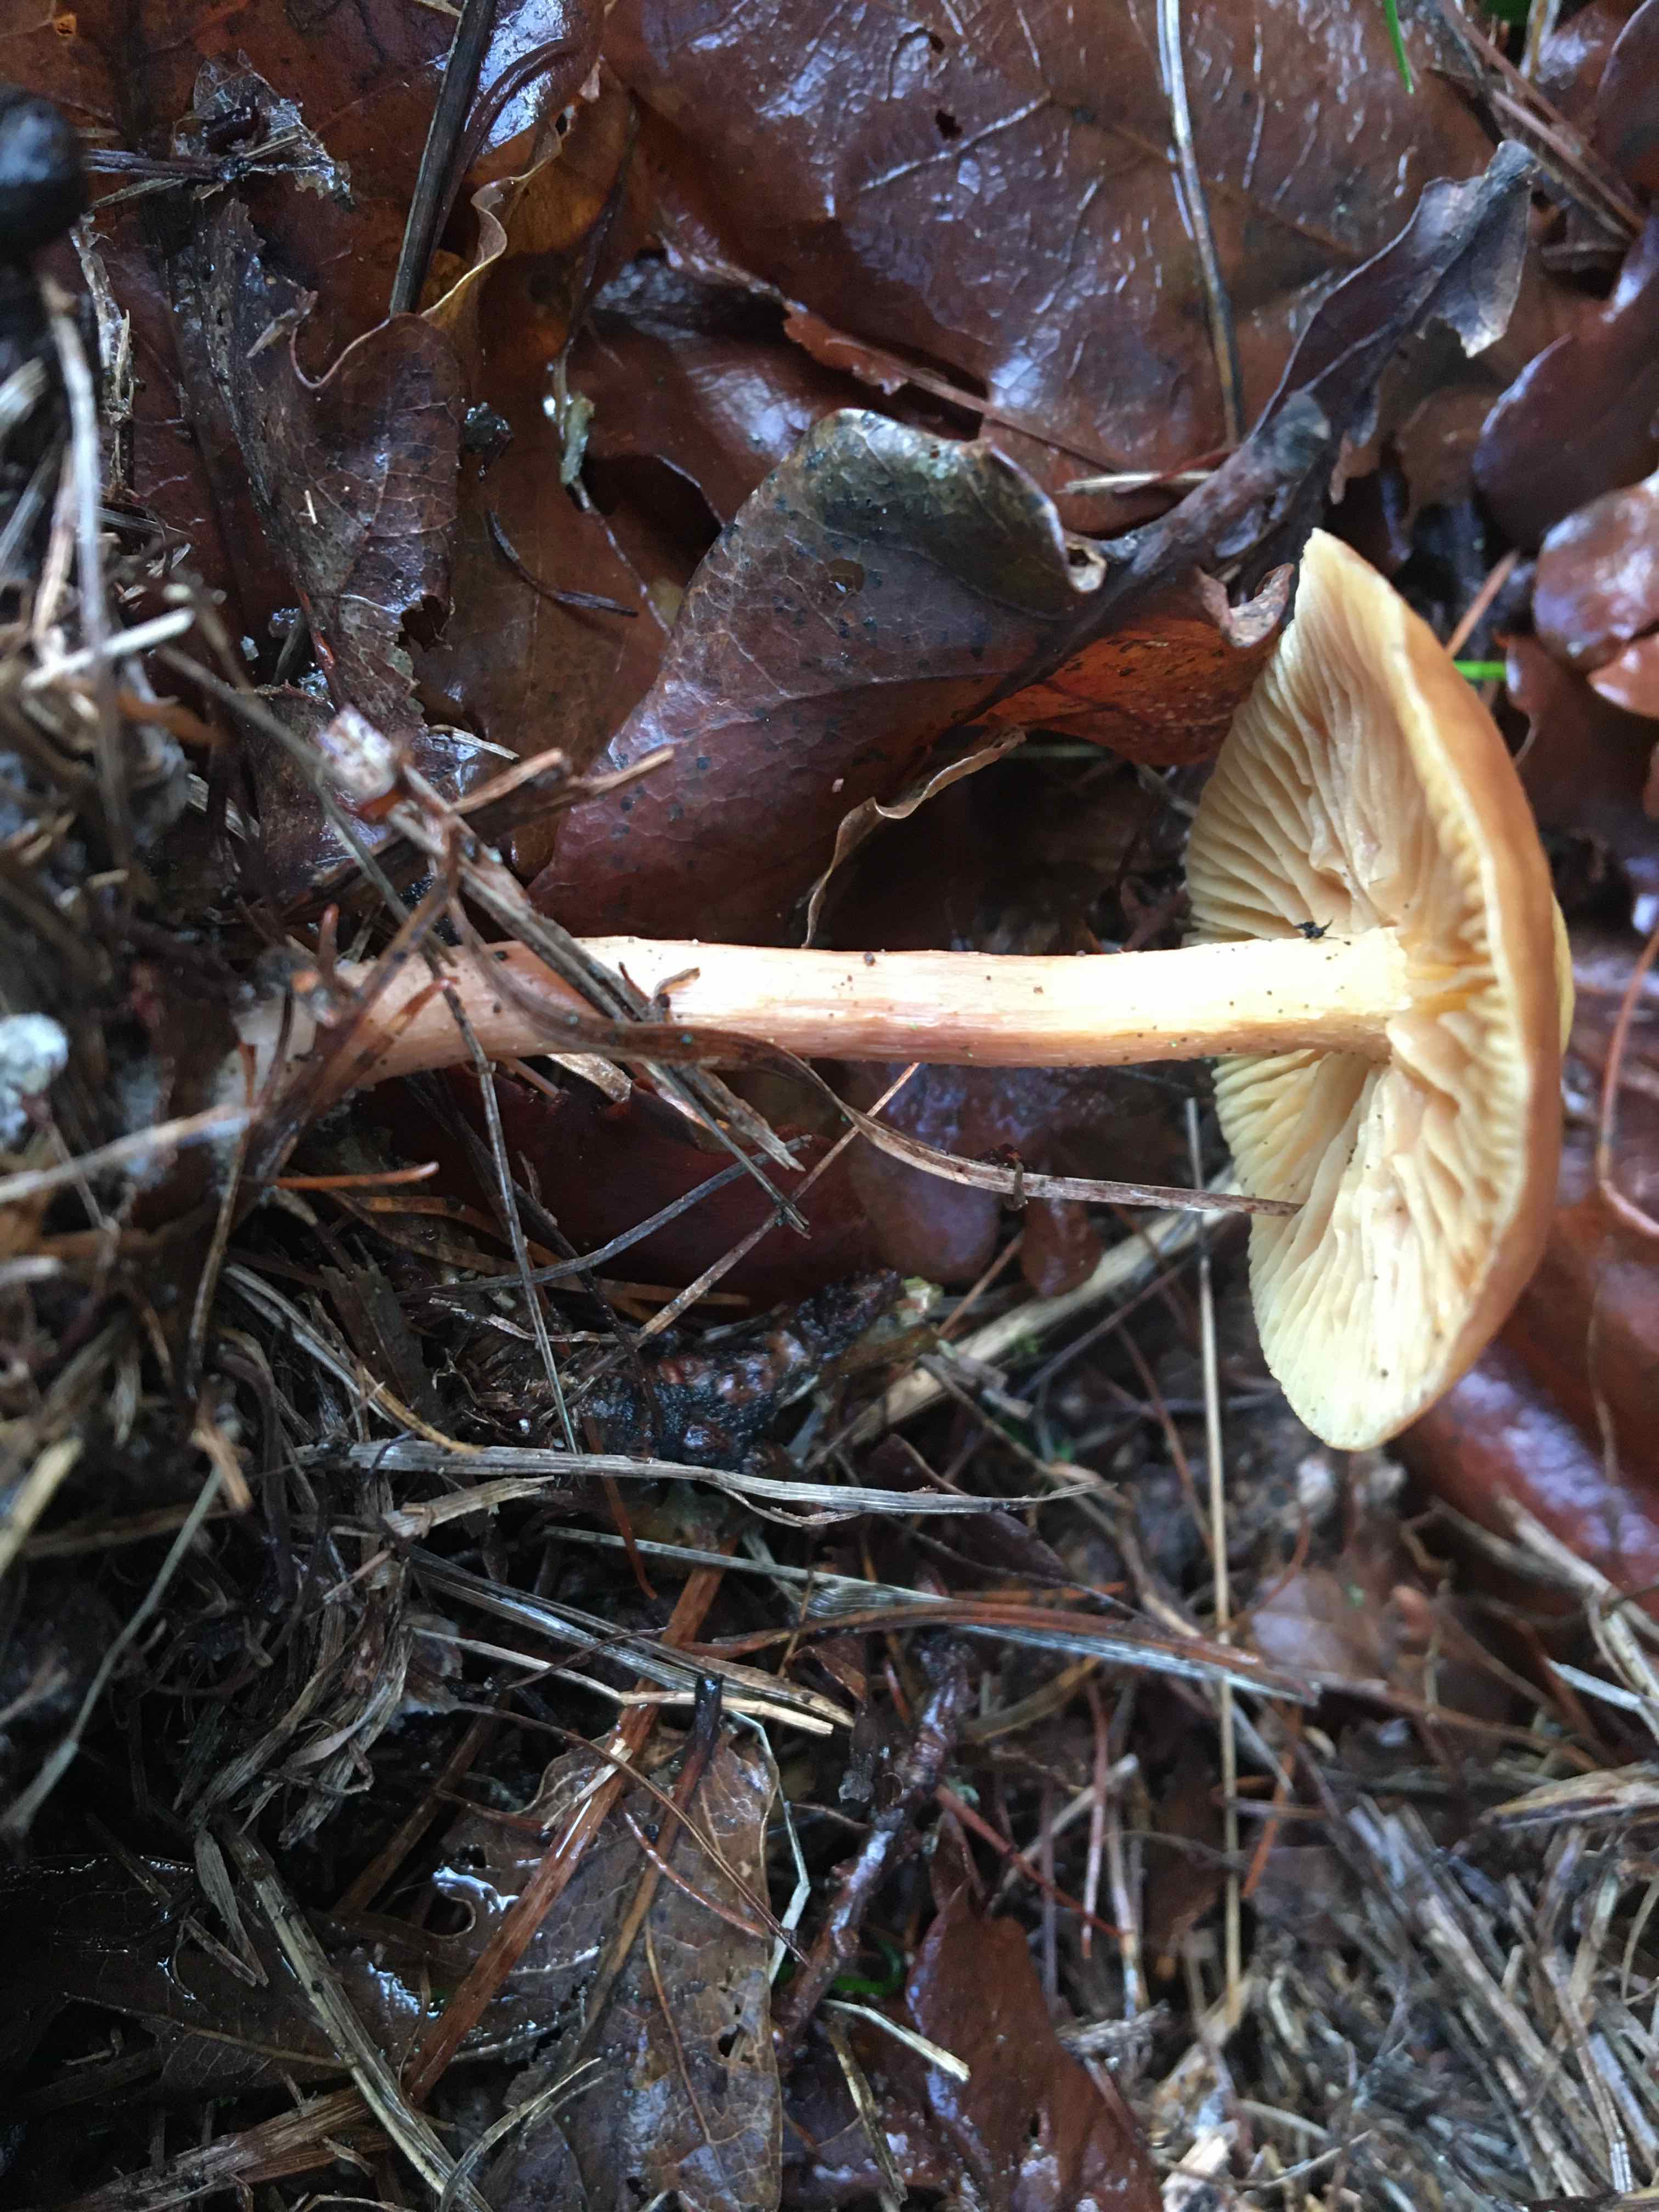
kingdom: Fungi
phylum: Basidiomycota
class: Agaricomycetes
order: Agaricales
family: Omphalotaceae
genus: Collybiopsis
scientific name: Collybiopsis peronata
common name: bestøvlet fladhat
